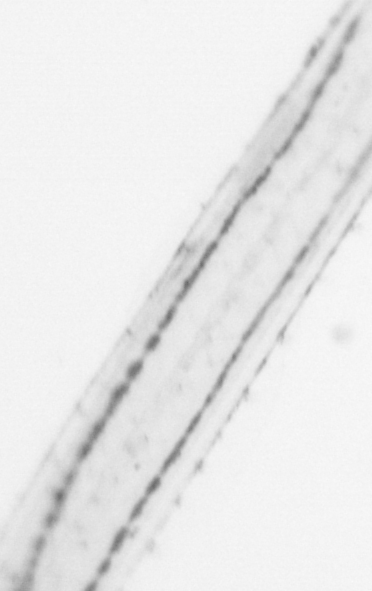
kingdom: Animalia
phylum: Chaetognatha
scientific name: Chaetognatha
